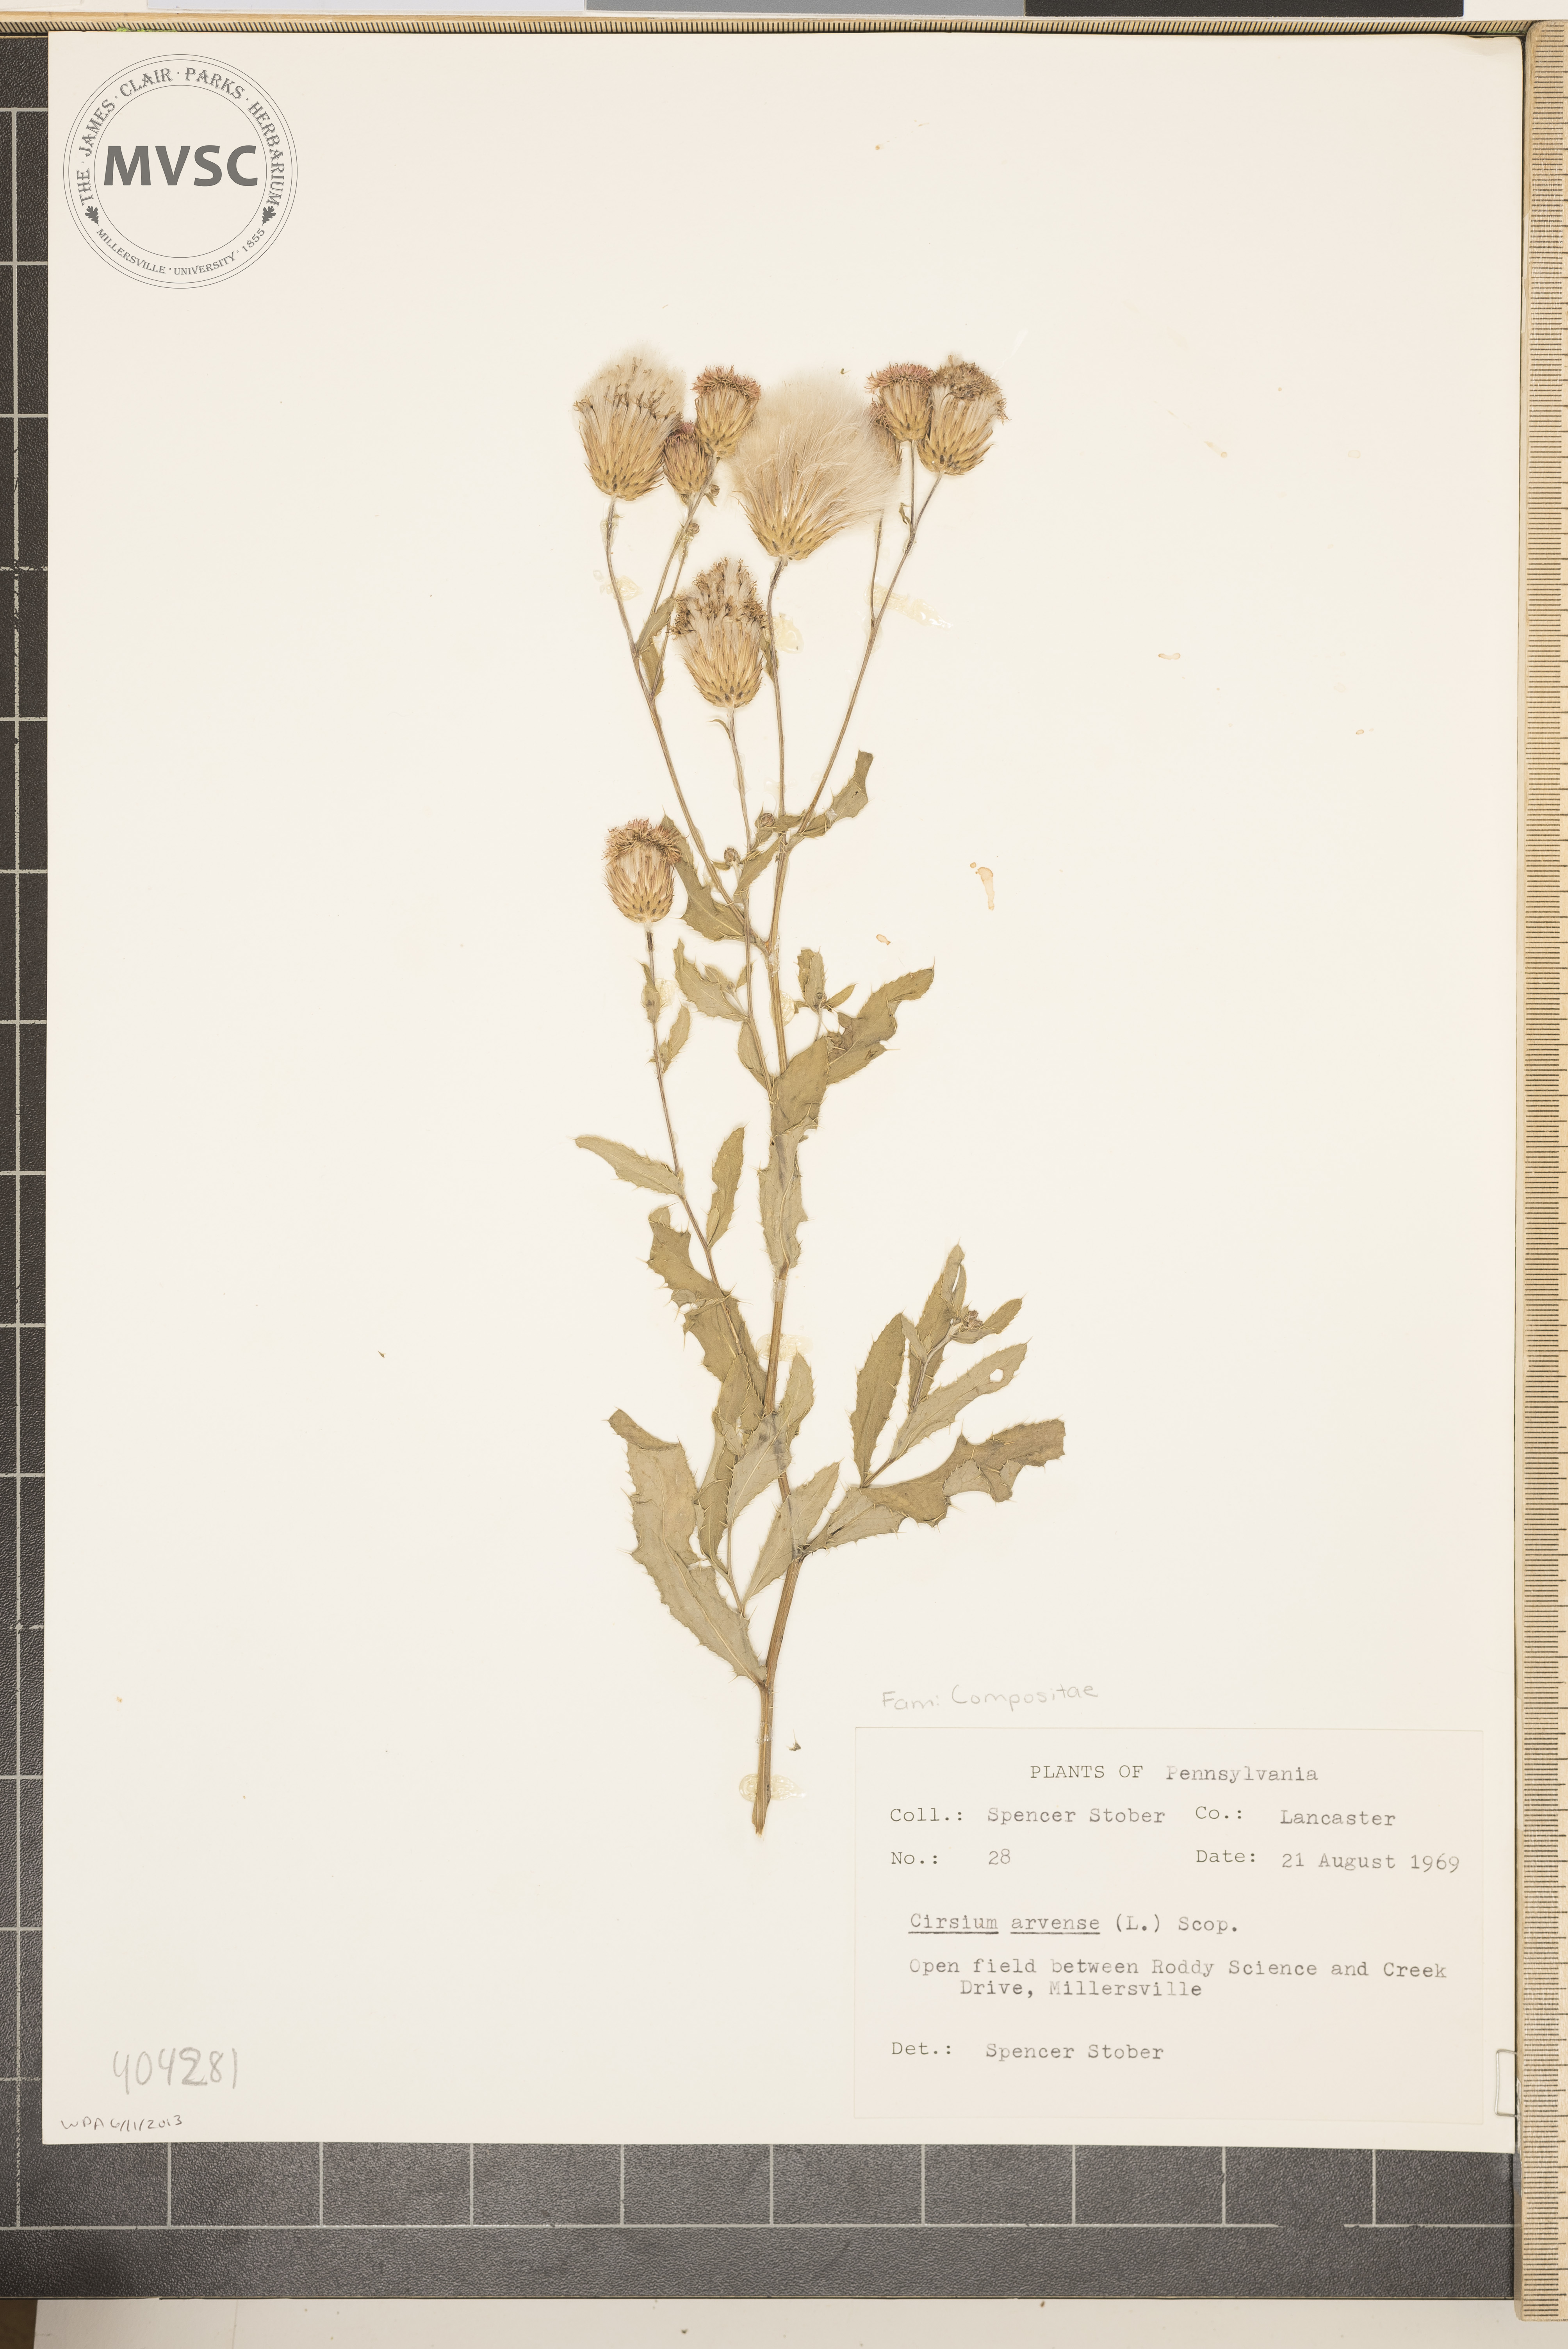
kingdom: Plantae
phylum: Tracheophyta
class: Magnoliopsida
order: Asterales
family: Asteraceae
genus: Cirsium
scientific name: Cirsium arvense
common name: Creeping thistle
